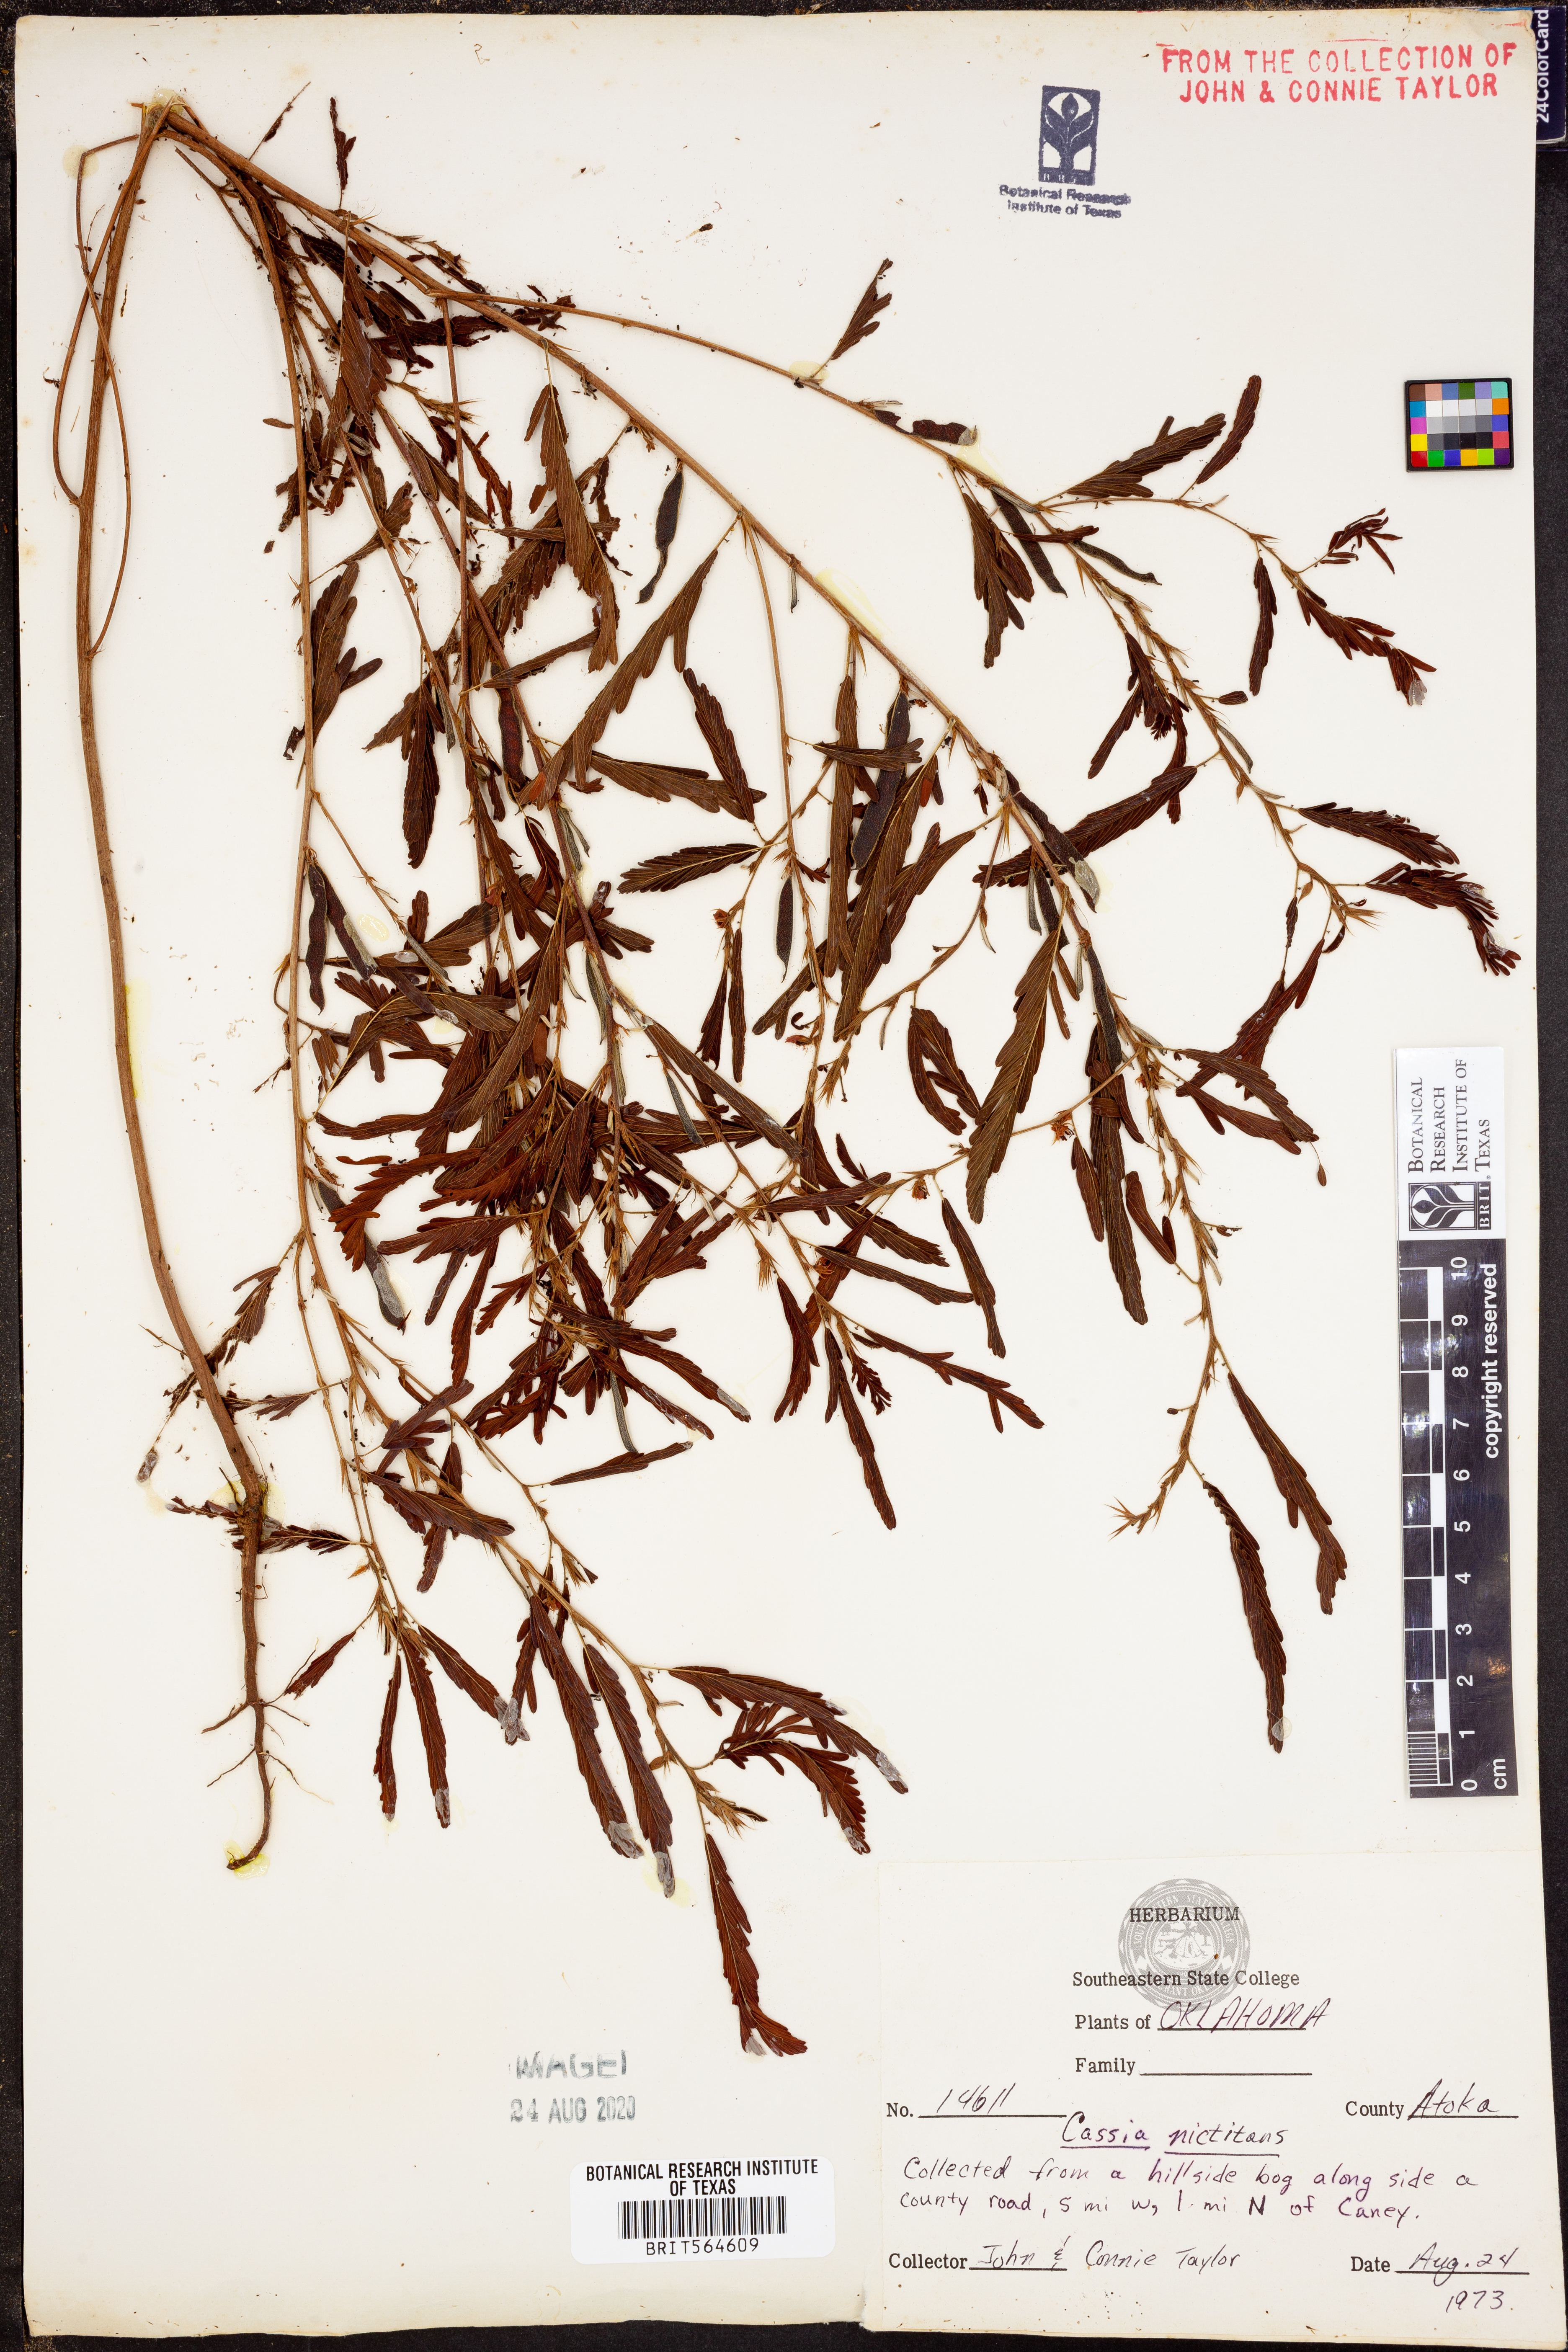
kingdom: Plantae
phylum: Tracheophyta
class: Magnoliopsida
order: Fabales
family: Fabaceae
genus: Chamaecrista
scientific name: Chamaecrista nictitans
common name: Sensitive cassia
